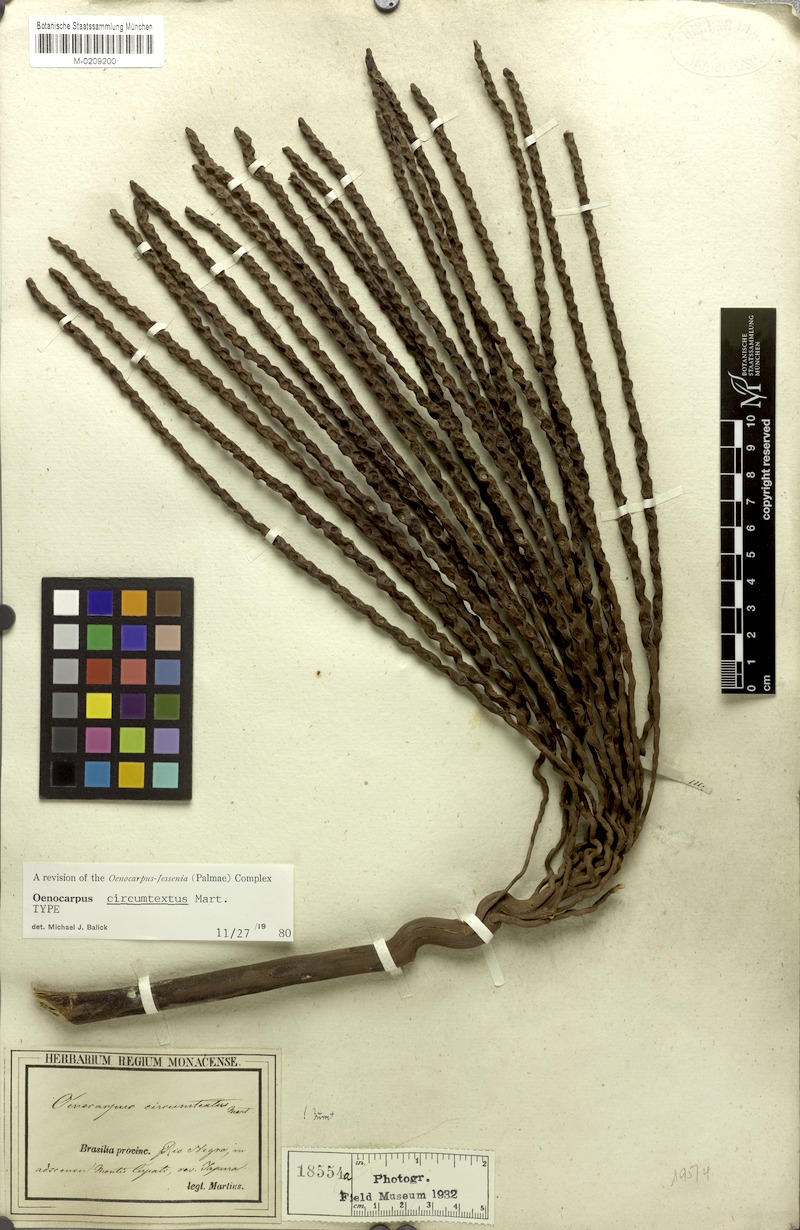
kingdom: Plantae
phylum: Tracheophyta
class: Liliopsida
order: Arecales
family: Arecaceae
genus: Oenocarpus
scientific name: Oenocarpus circumtextus
